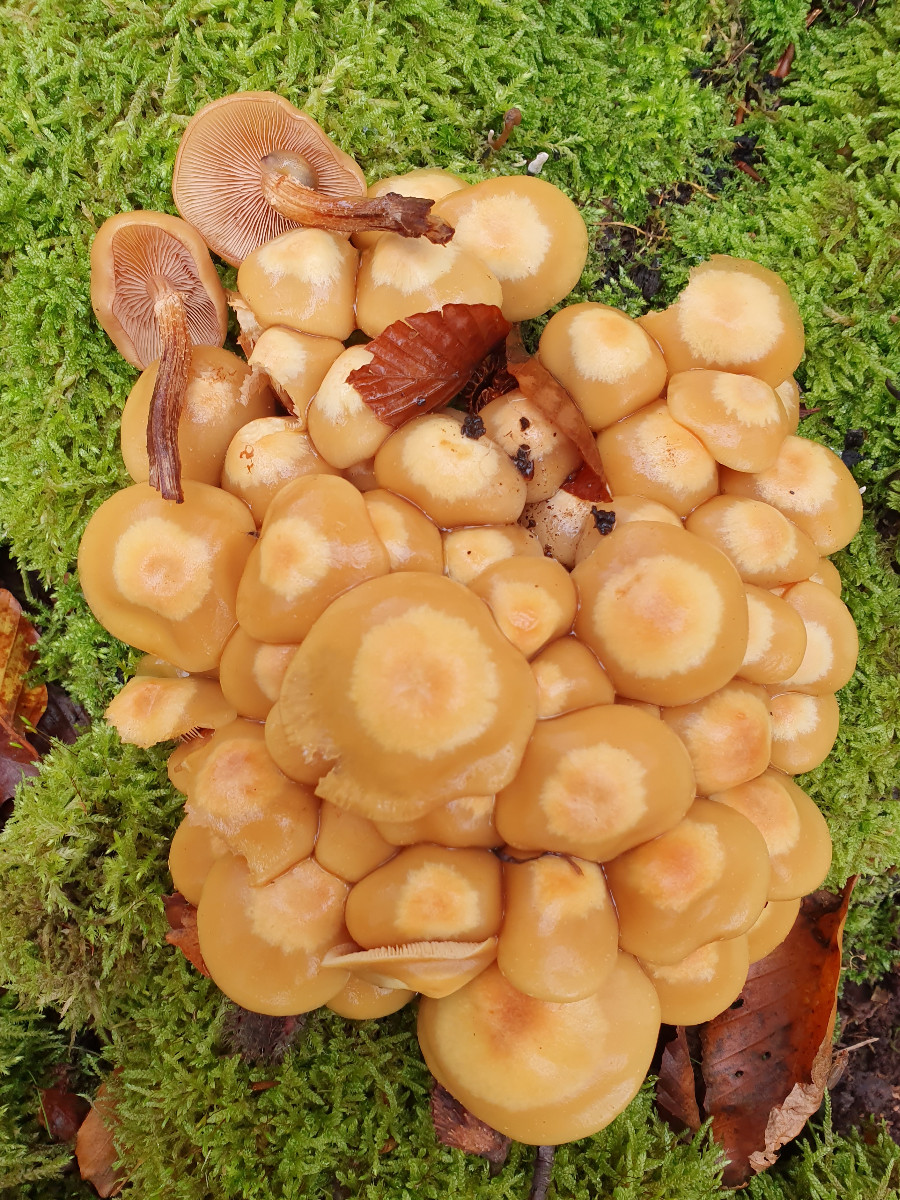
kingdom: Fungi
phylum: Basidiomycota
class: Agaricomycetes
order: Agaricales
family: Strophariaceae
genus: Kuehneromyces
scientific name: Kuehneromyces mutabilis
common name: foranderlig skælhat
